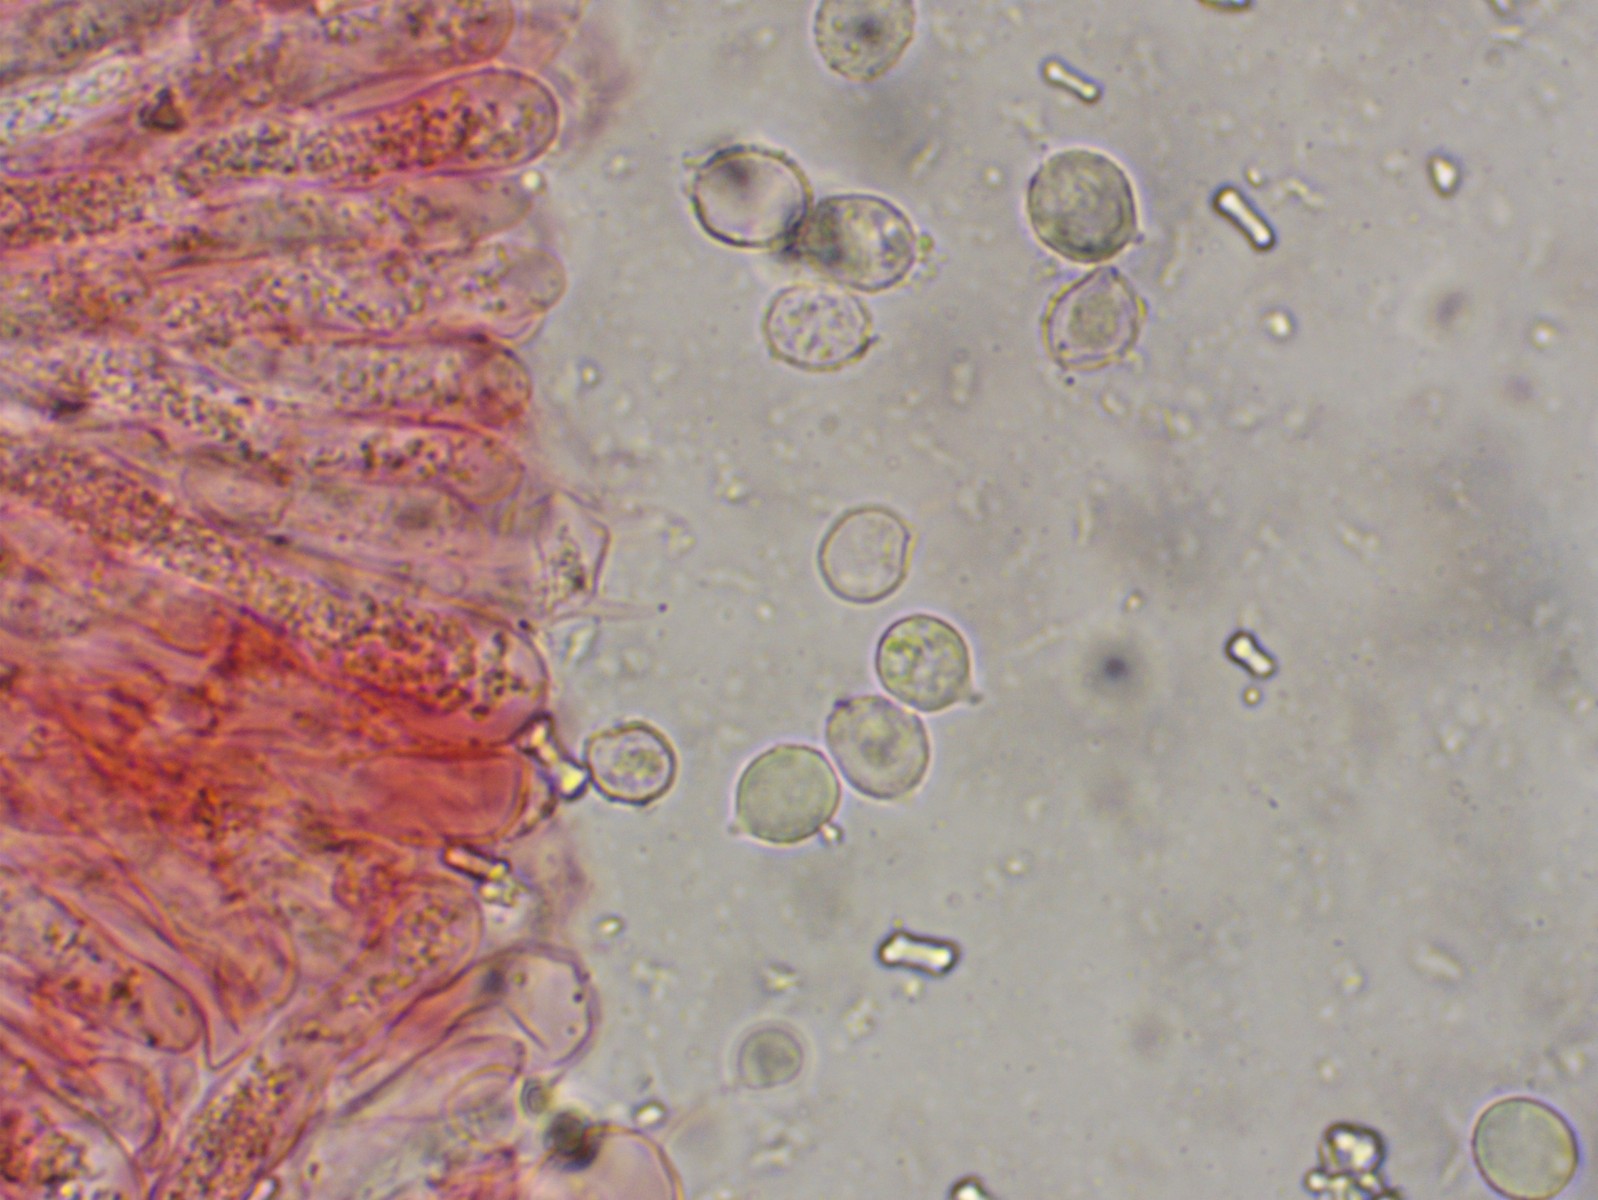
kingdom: Fungi
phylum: Basidiomycota
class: Agaricomycetes
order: Agaricales
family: Radulomycetaceae
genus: Radulomyces
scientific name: Radulomyces rickii
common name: rundsporet naftalinskind
